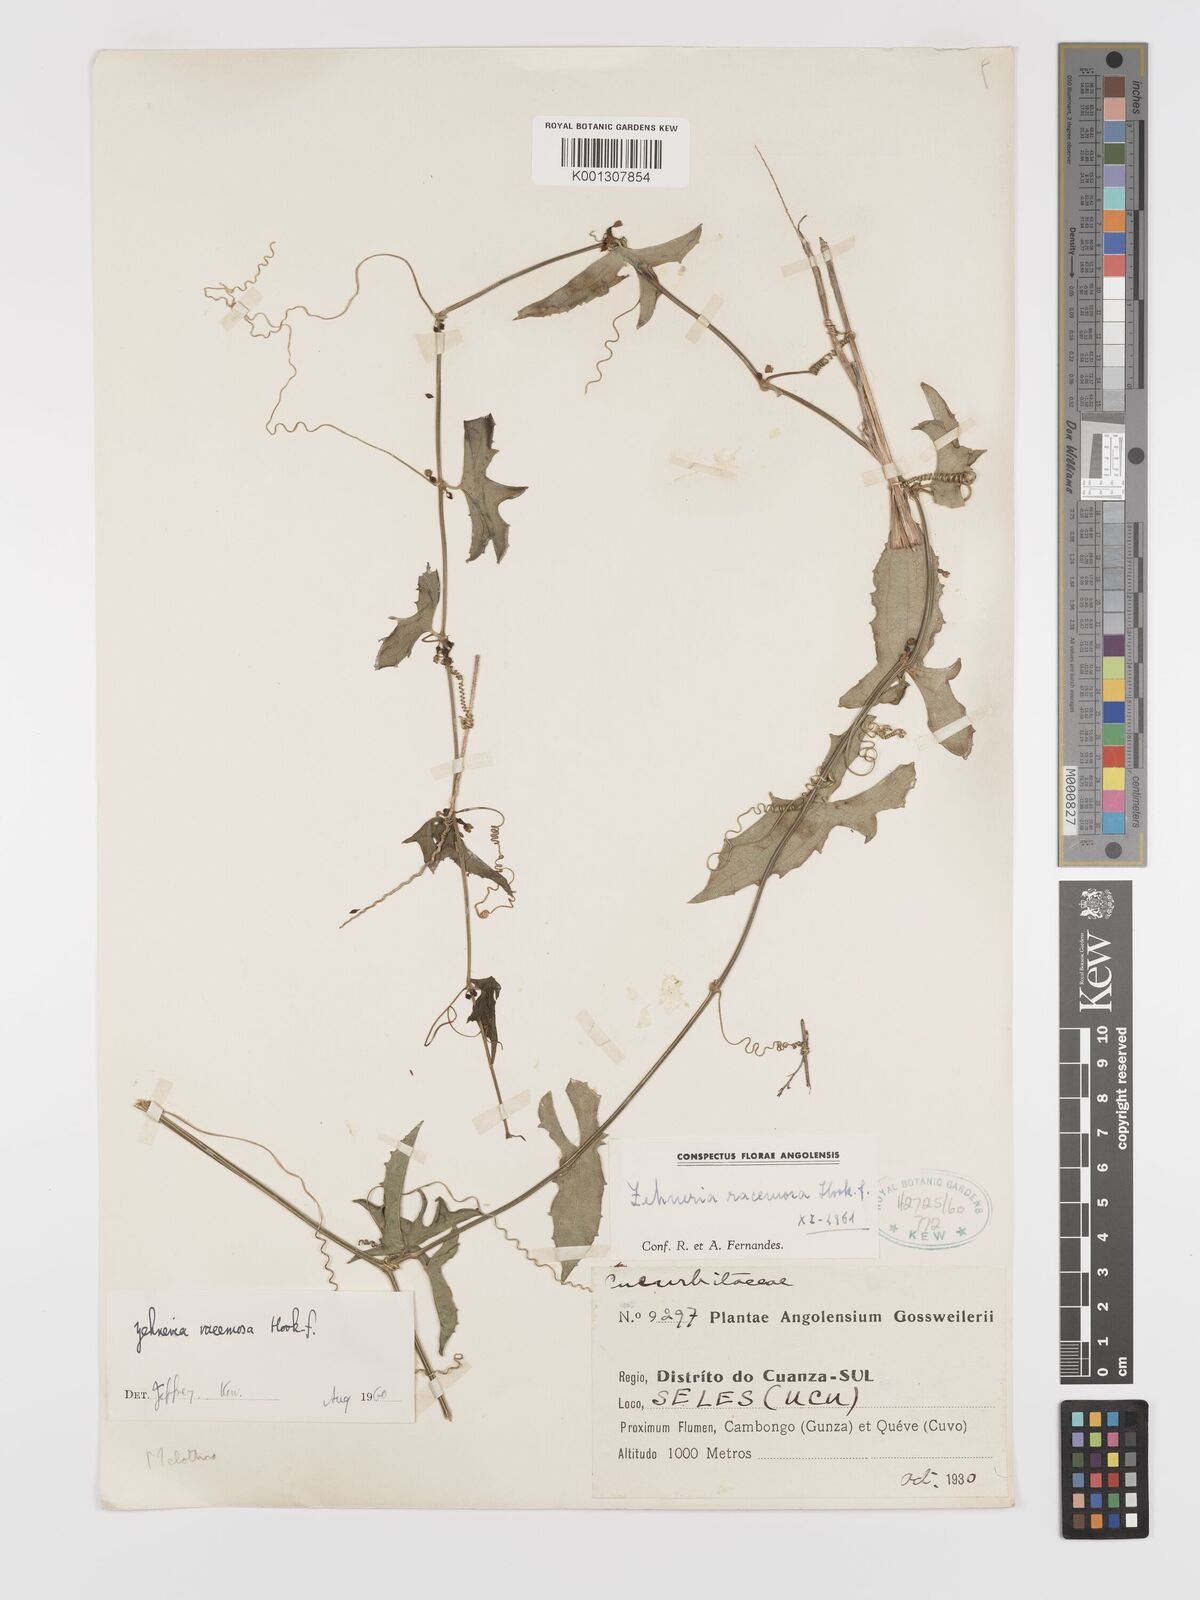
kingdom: Plantae
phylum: Tracheophyta
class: Magnoliopsida
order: Cucurbitales
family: Cucurbitaceae
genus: Zehneria
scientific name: Zehneria racemosa
